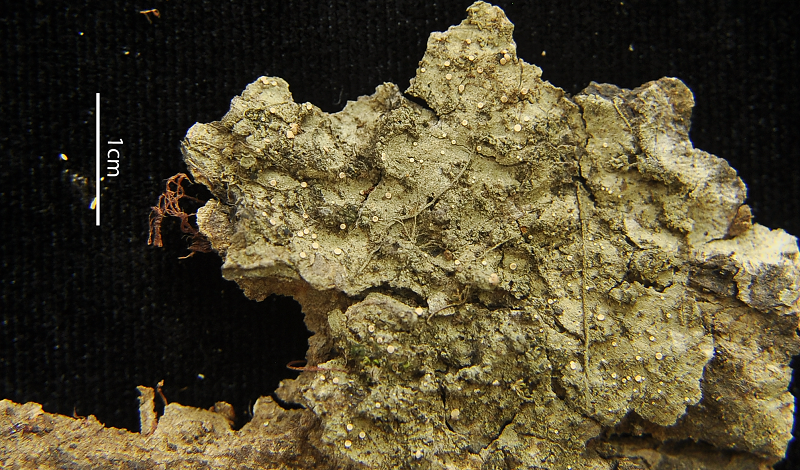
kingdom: Fungi
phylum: Ascomycota
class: Lecanoromycetes
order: Ostropales
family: Coenogoniaceae
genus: Coenogonium
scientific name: Coenogonium frederici
